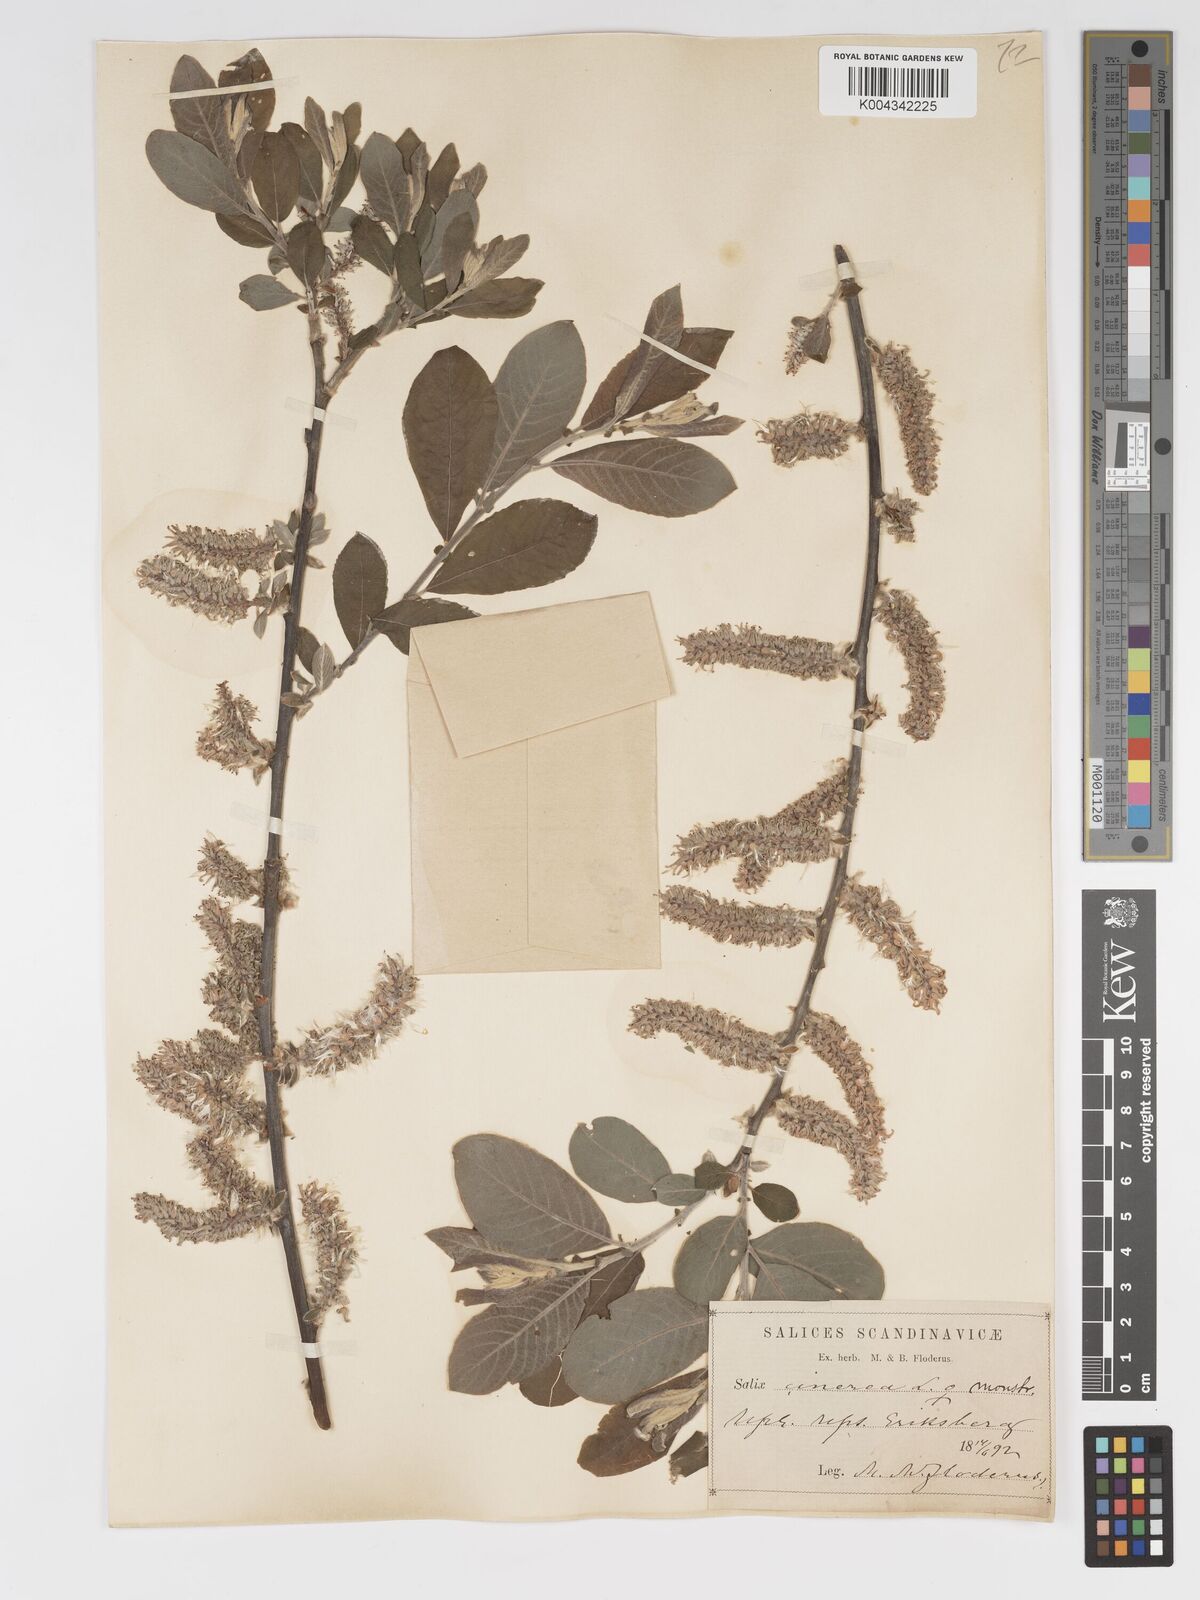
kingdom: Plantae
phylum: Tracheophyta
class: Magnoliopsida
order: Malpighiales
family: Salicaceae
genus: Salix
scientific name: Salix
